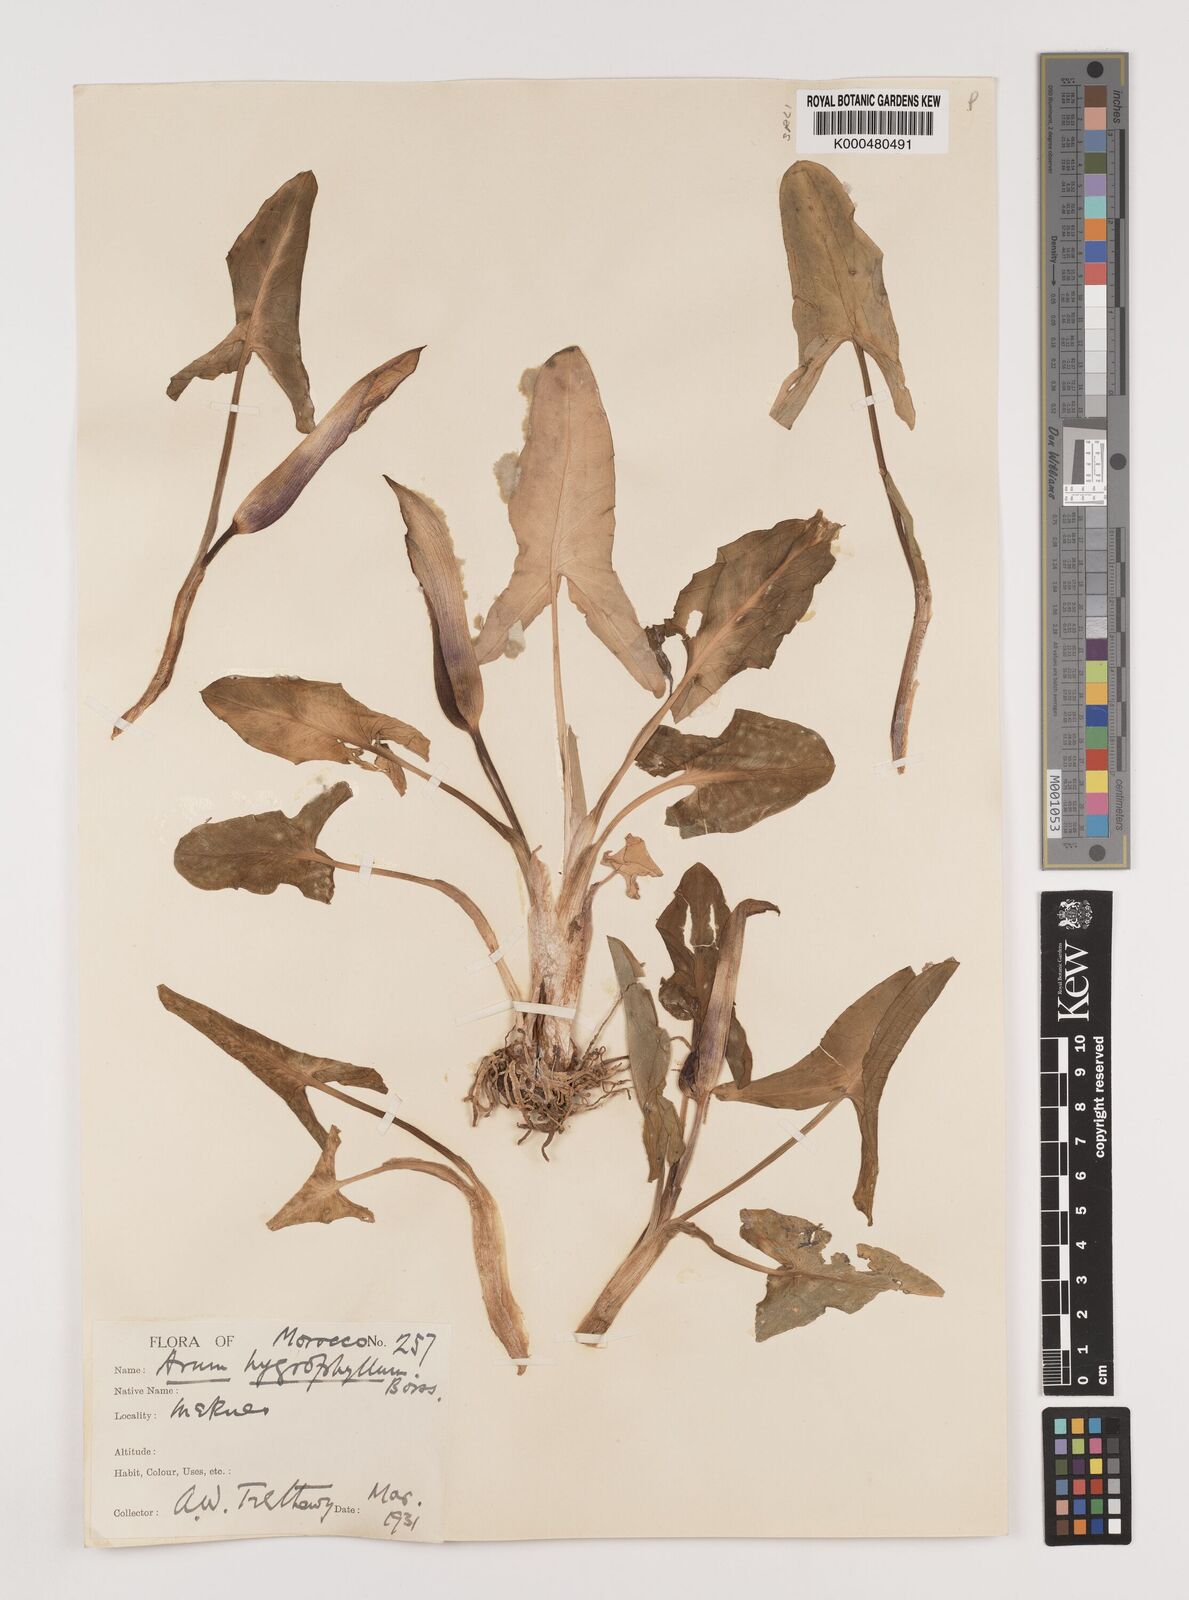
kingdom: Plantae
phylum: Tracheophyta
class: Liliopsida
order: Alismatales
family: Araceae
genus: Arum
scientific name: Arum hygrophilum
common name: Water arum
